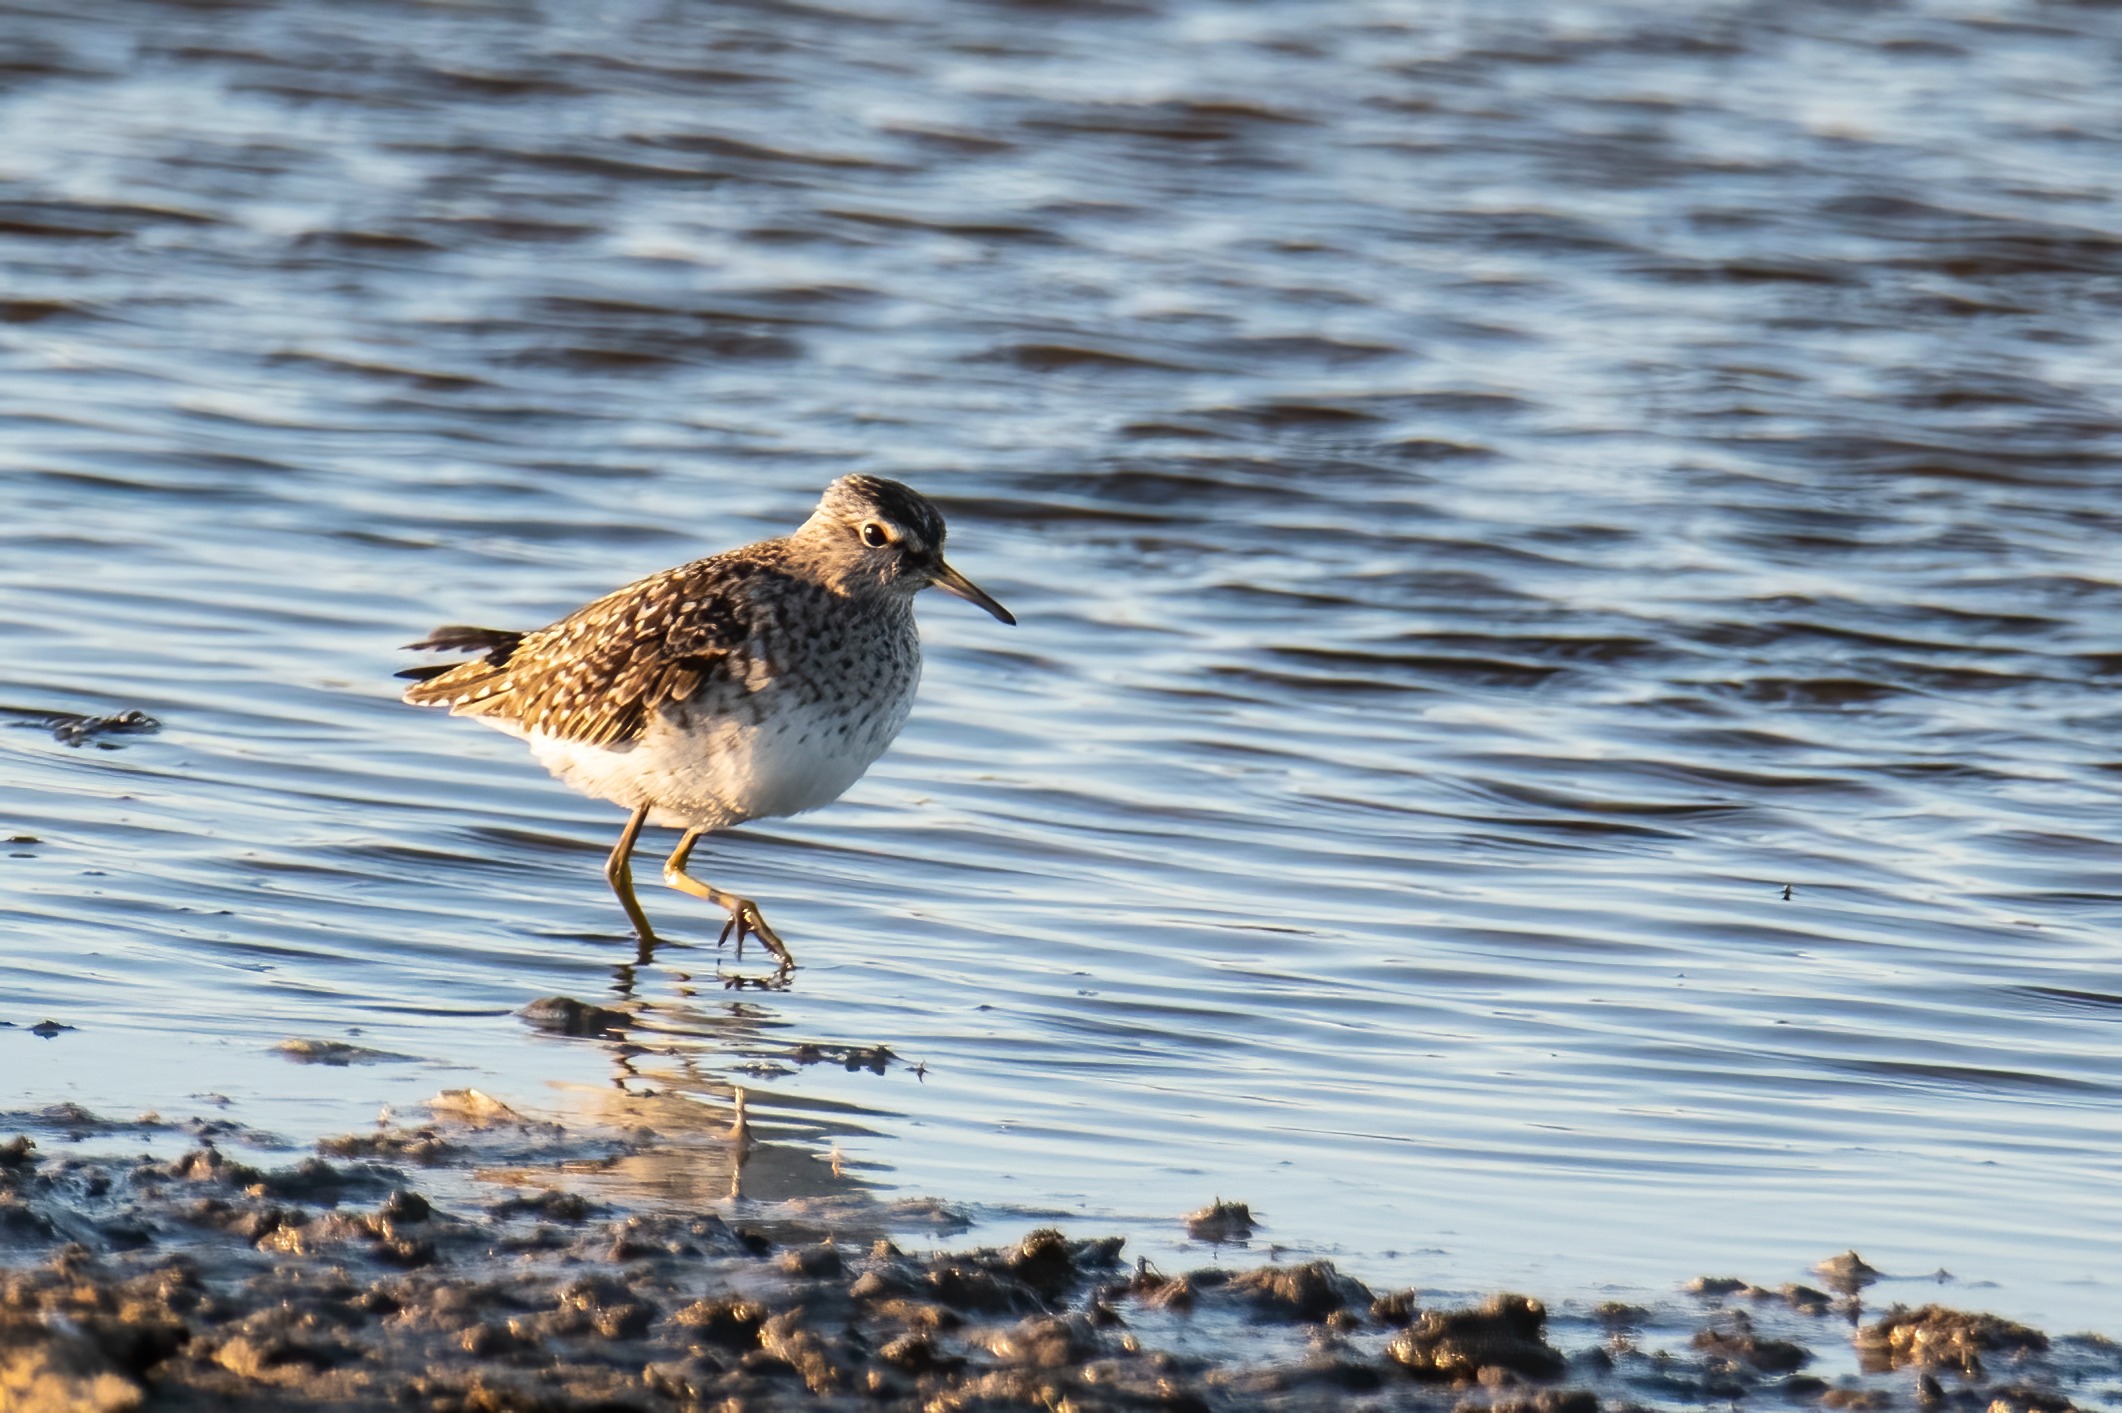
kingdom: Animalia
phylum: Chordata
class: Aves
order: Charadriiformes
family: Scolopacidae
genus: Tringa
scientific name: Tringa glareola
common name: Tinksmed
